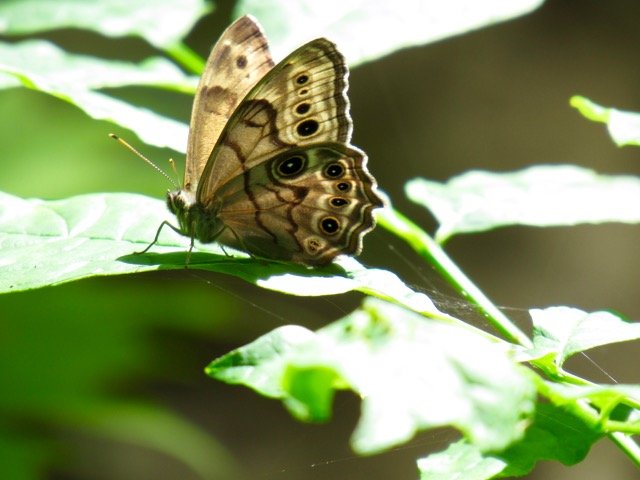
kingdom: Animalia
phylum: Arthropoda
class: Insecta
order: Lepidoptera
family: Nymphalidae
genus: Lethe
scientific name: Lethe anthedon
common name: Northern Pearly-Eye
